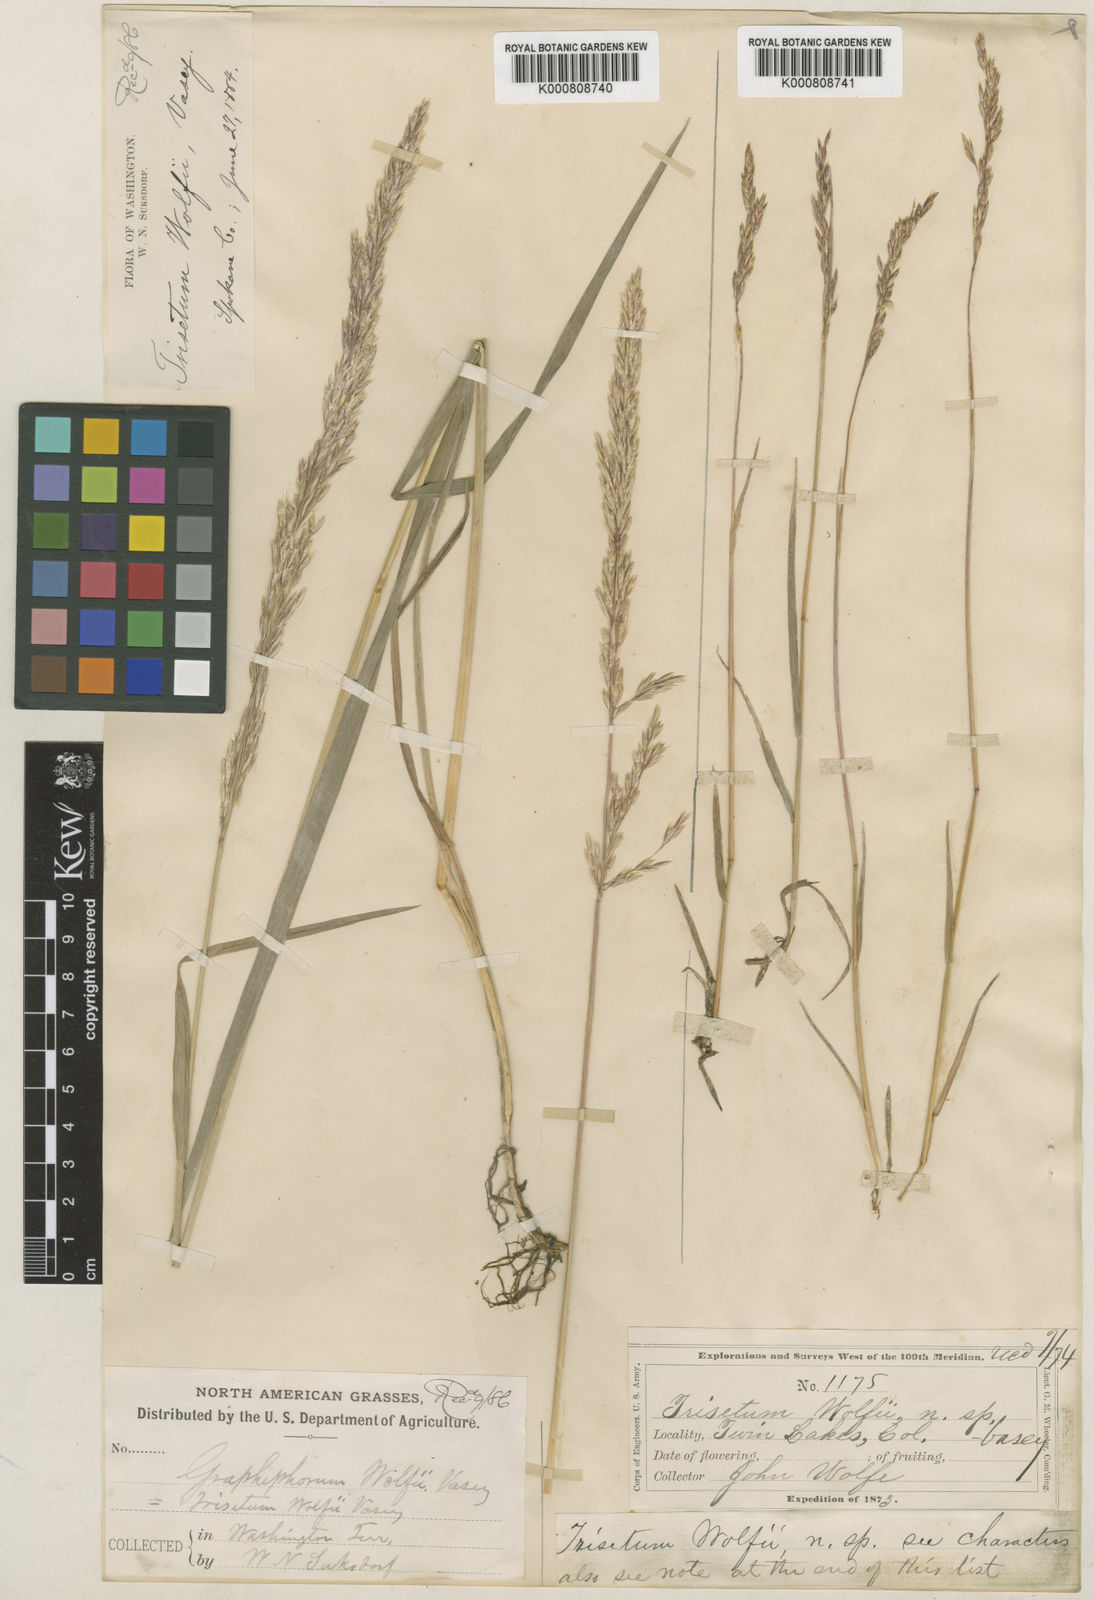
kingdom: Plantae
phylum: Tracheophyta
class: Liliopsida
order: Poales
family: Poaceae
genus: Graphephorum
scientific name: Graphephorum wolfii
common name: Wolf's trisetum
